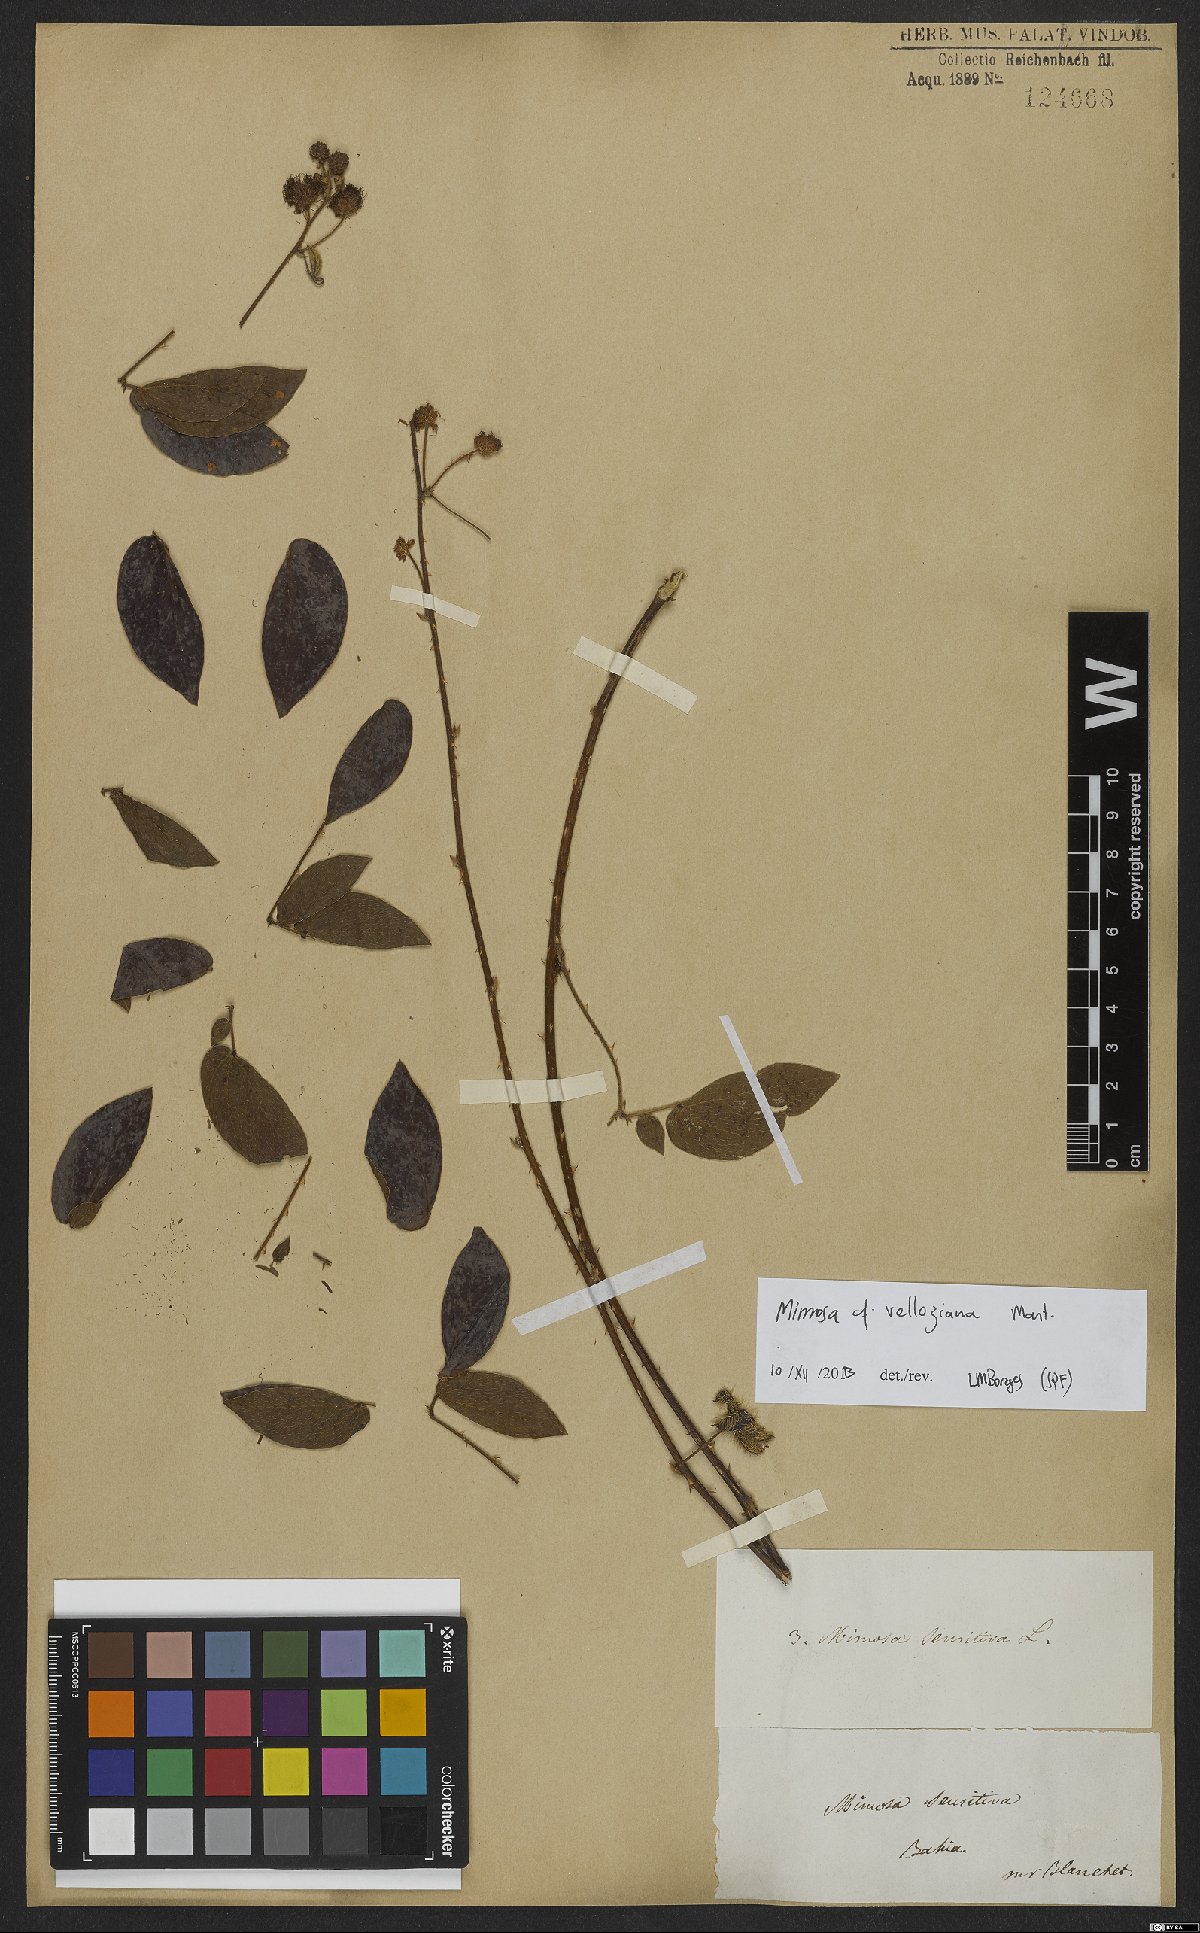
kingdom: Plantae
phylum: Tracheophyta
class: Magnoliopsida
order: Fabales
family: Fabaceae
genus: Mimosa
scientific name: Mimosa velloziana
